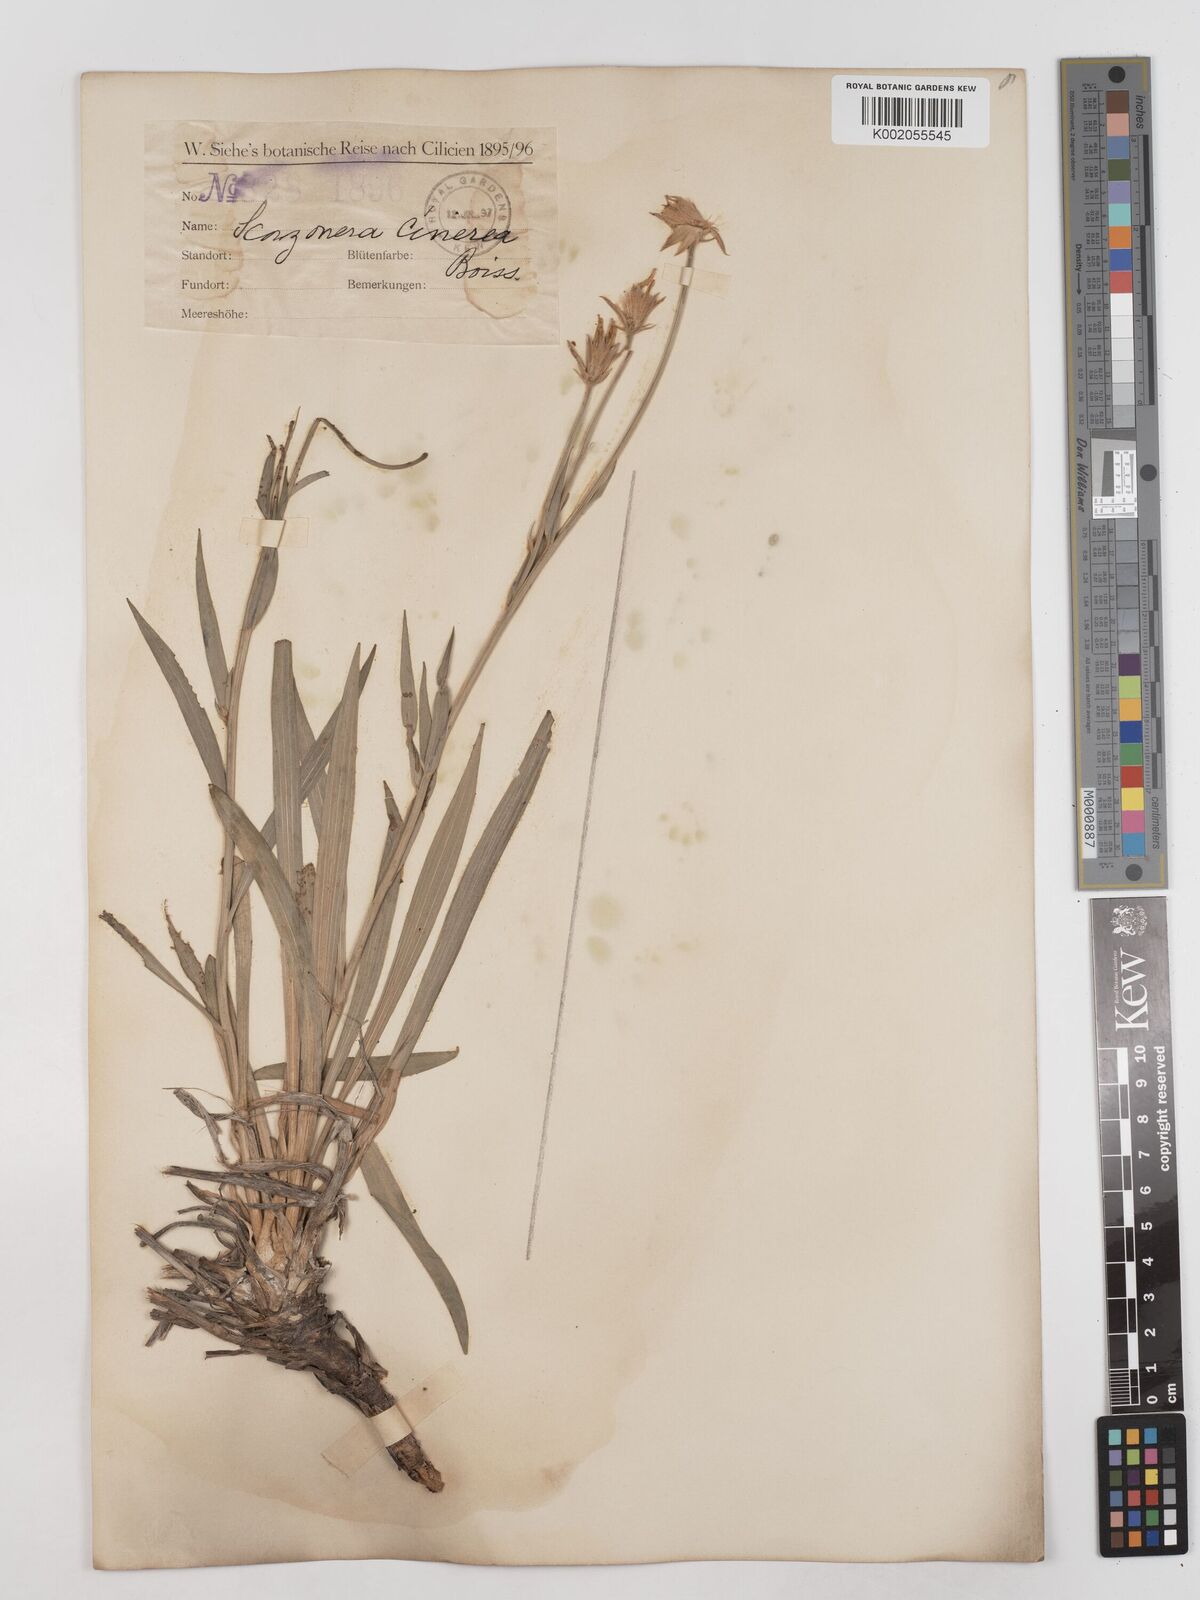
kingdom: Plantae
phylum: Tracheophyta
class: Magnoliopsida
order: Asterales
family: Asteraceae
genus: Cigdemia
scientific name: Cigdemia cinerea
